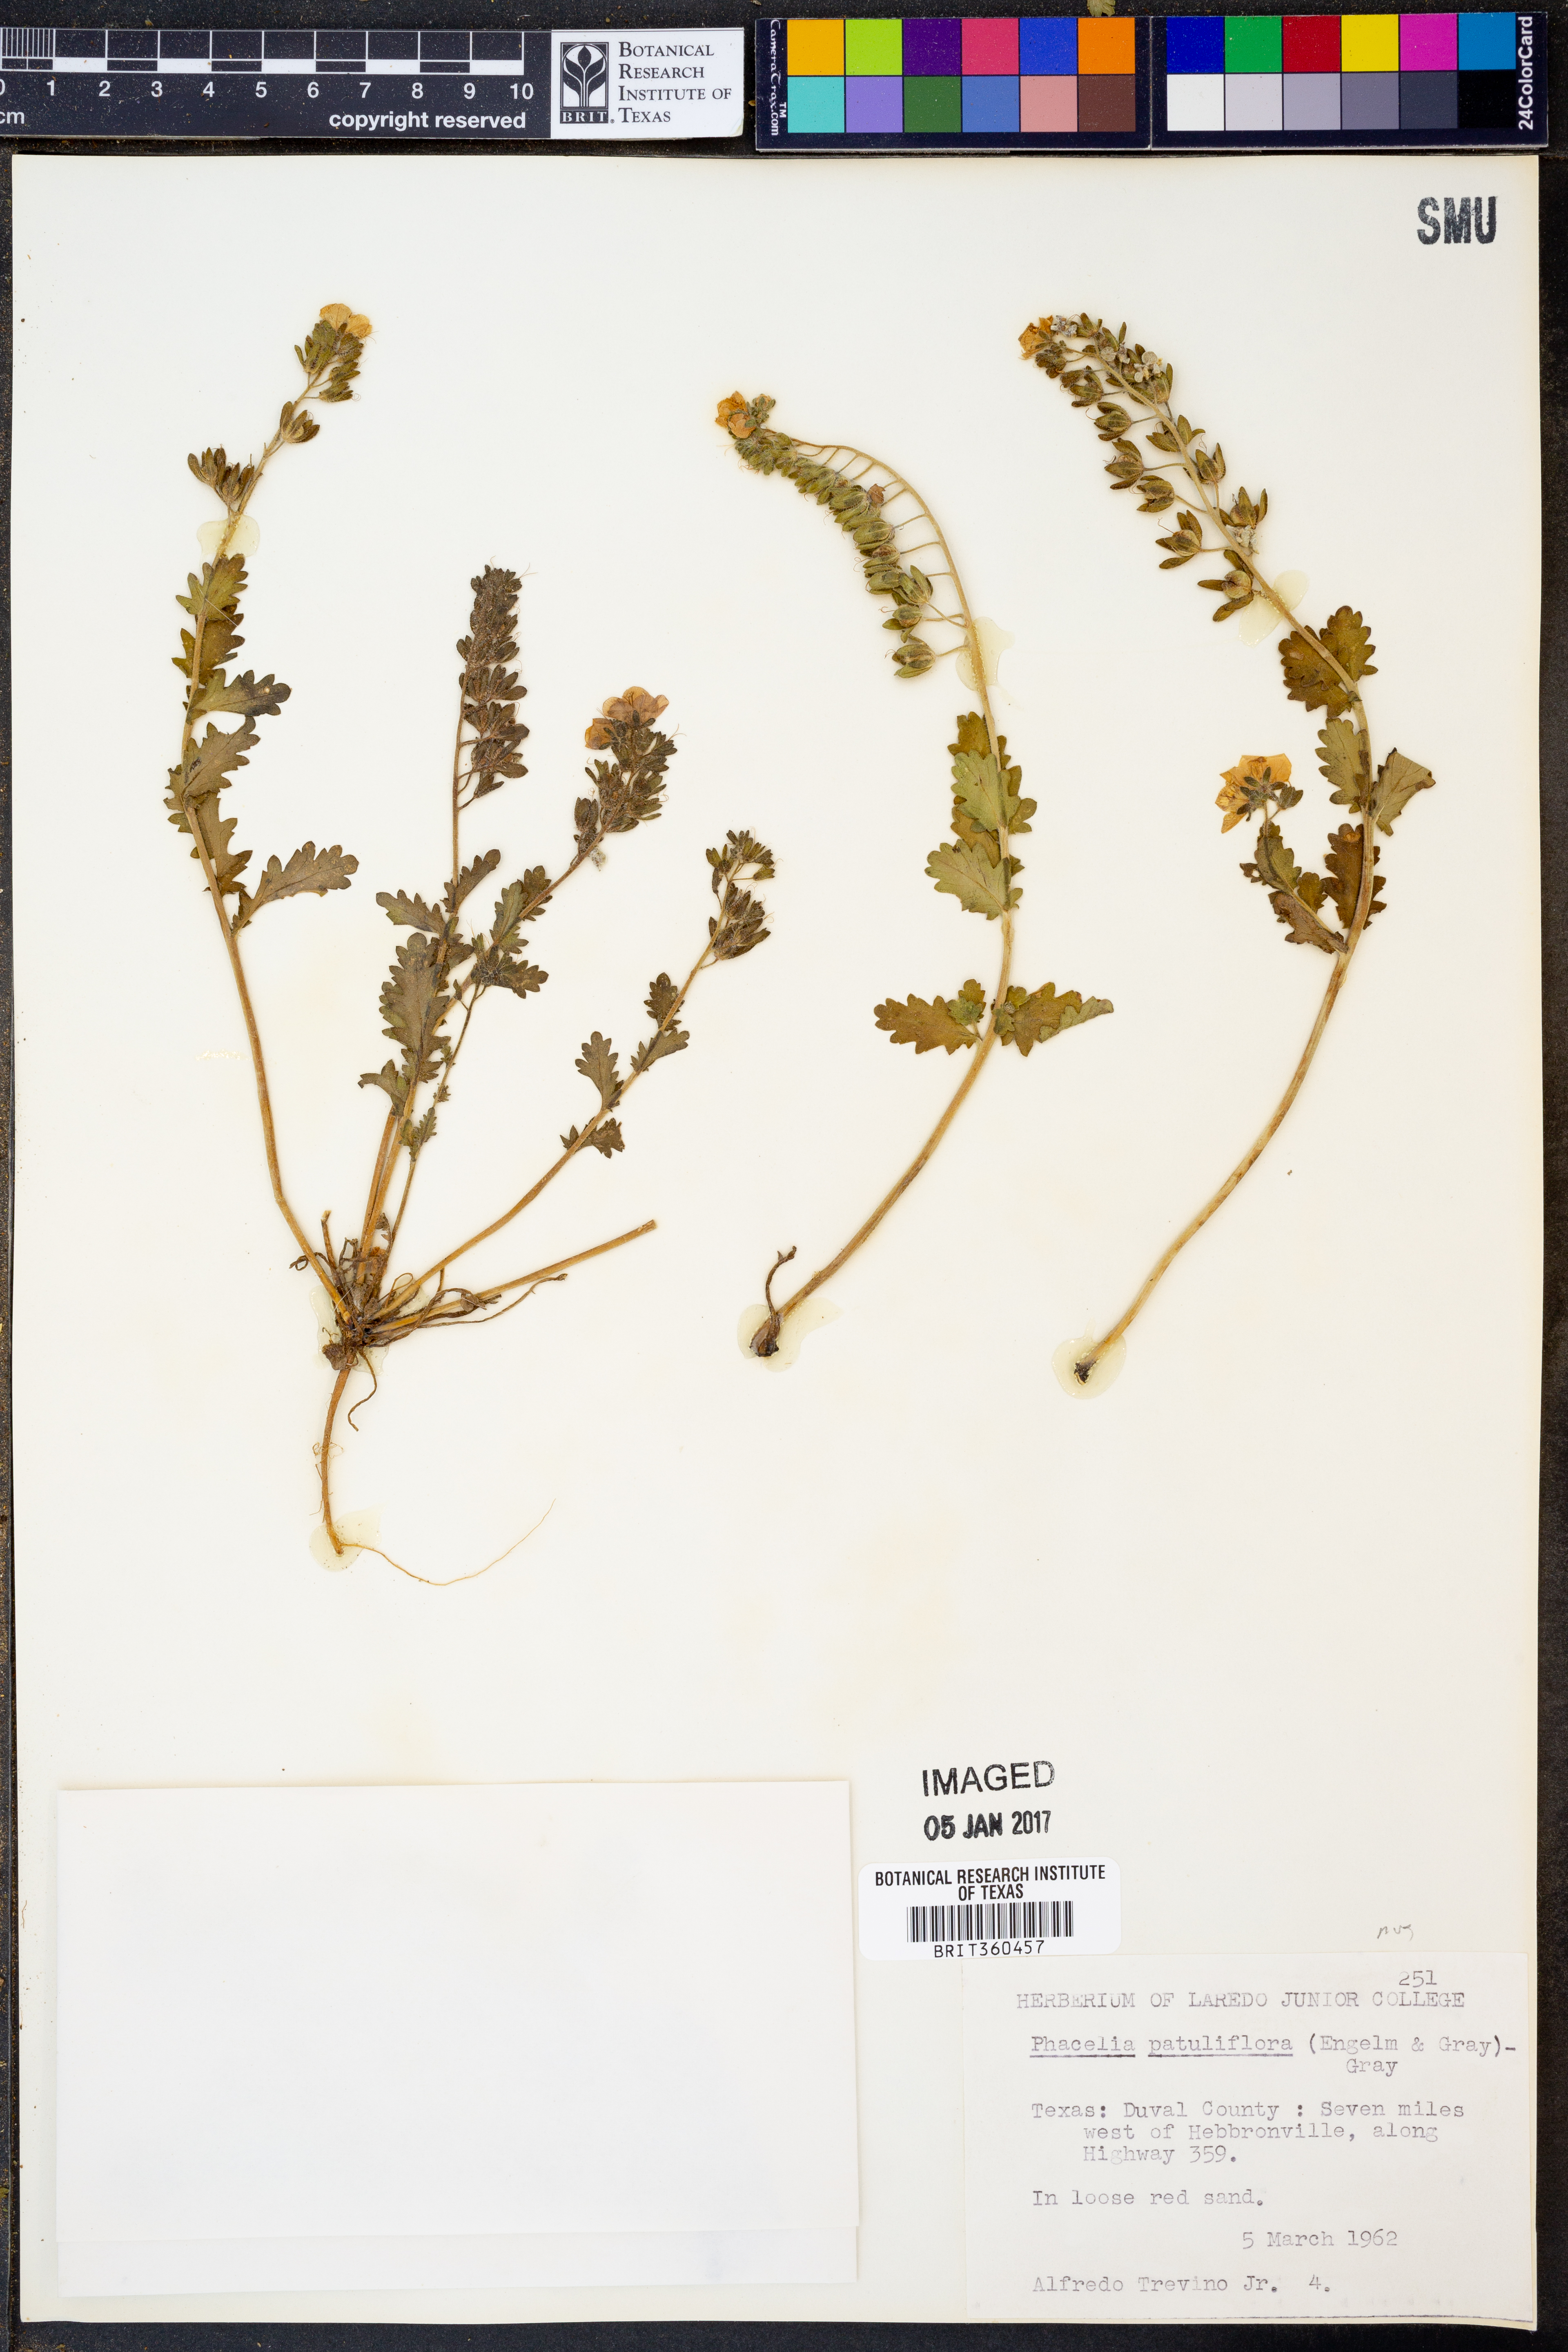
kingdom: Plantae
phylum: Tracheophyta
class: Magnoliopsida
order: Boraginales
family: Hydrophyllaceae
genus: Phacelia
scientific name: Phacelia patuliflora
